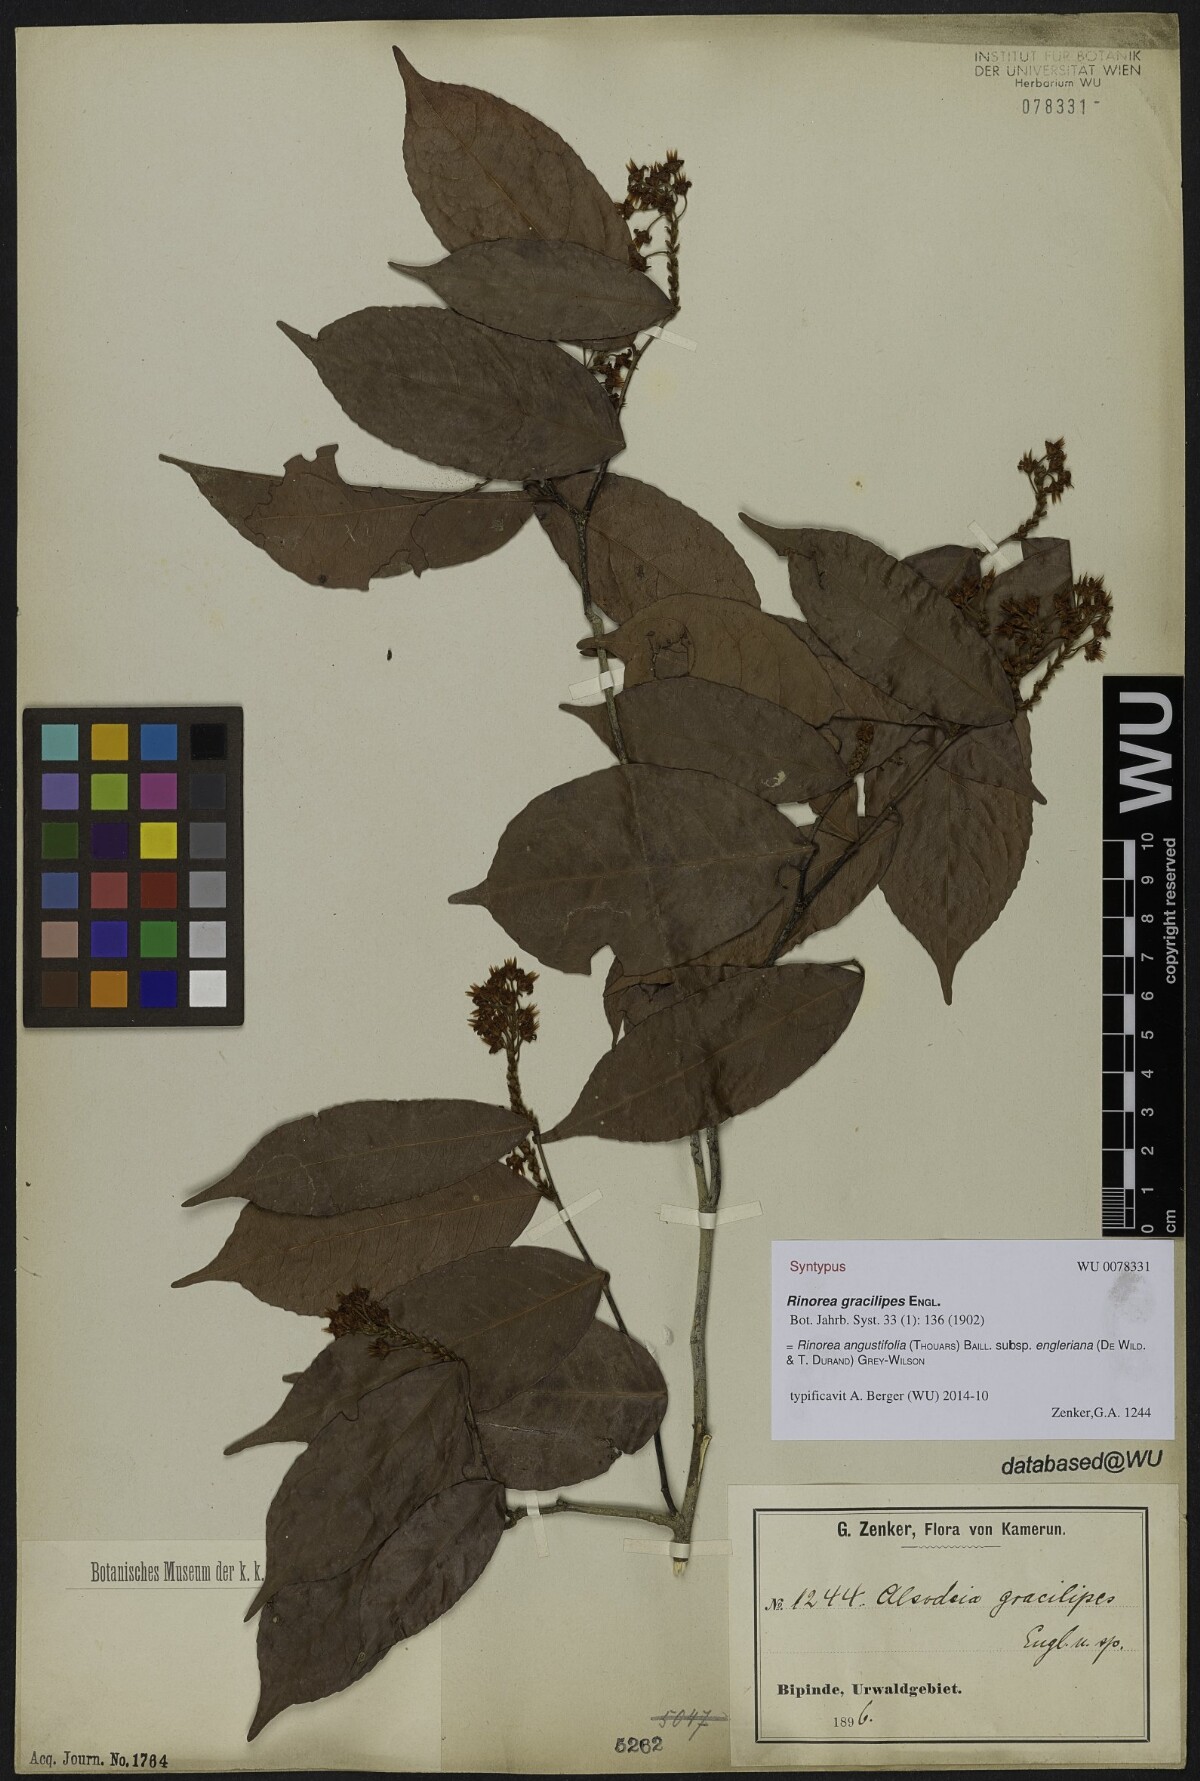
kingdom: Plantae
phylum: Tracheophyta
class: Magnoliopsida
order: Malpighiales
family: Violaceae
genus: Rinorea
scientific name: Rinorea angustifolia
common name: White violet-bush
